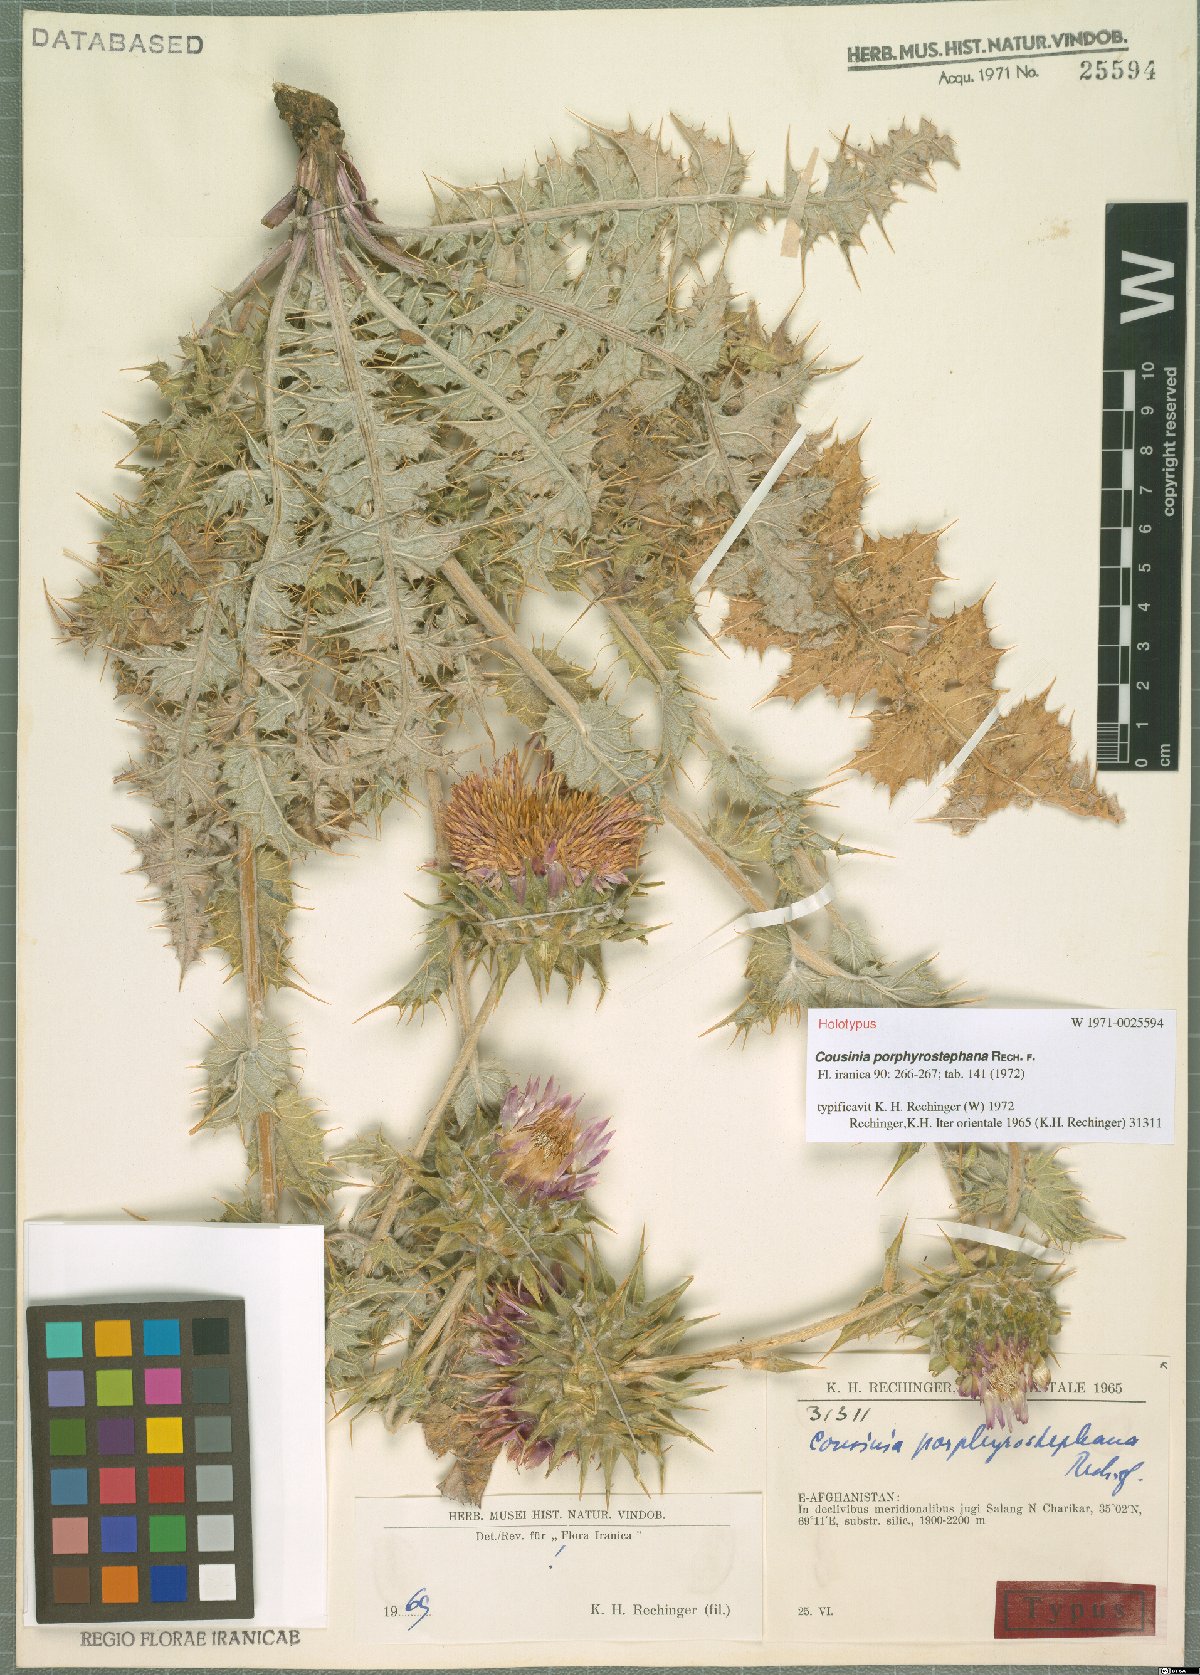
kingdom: Plantae
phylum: Tracheophyta
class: Magnoliopsida
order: Asterales
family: Asteraceae
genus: Cousinia
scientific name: Cousinia porphyrostephana
